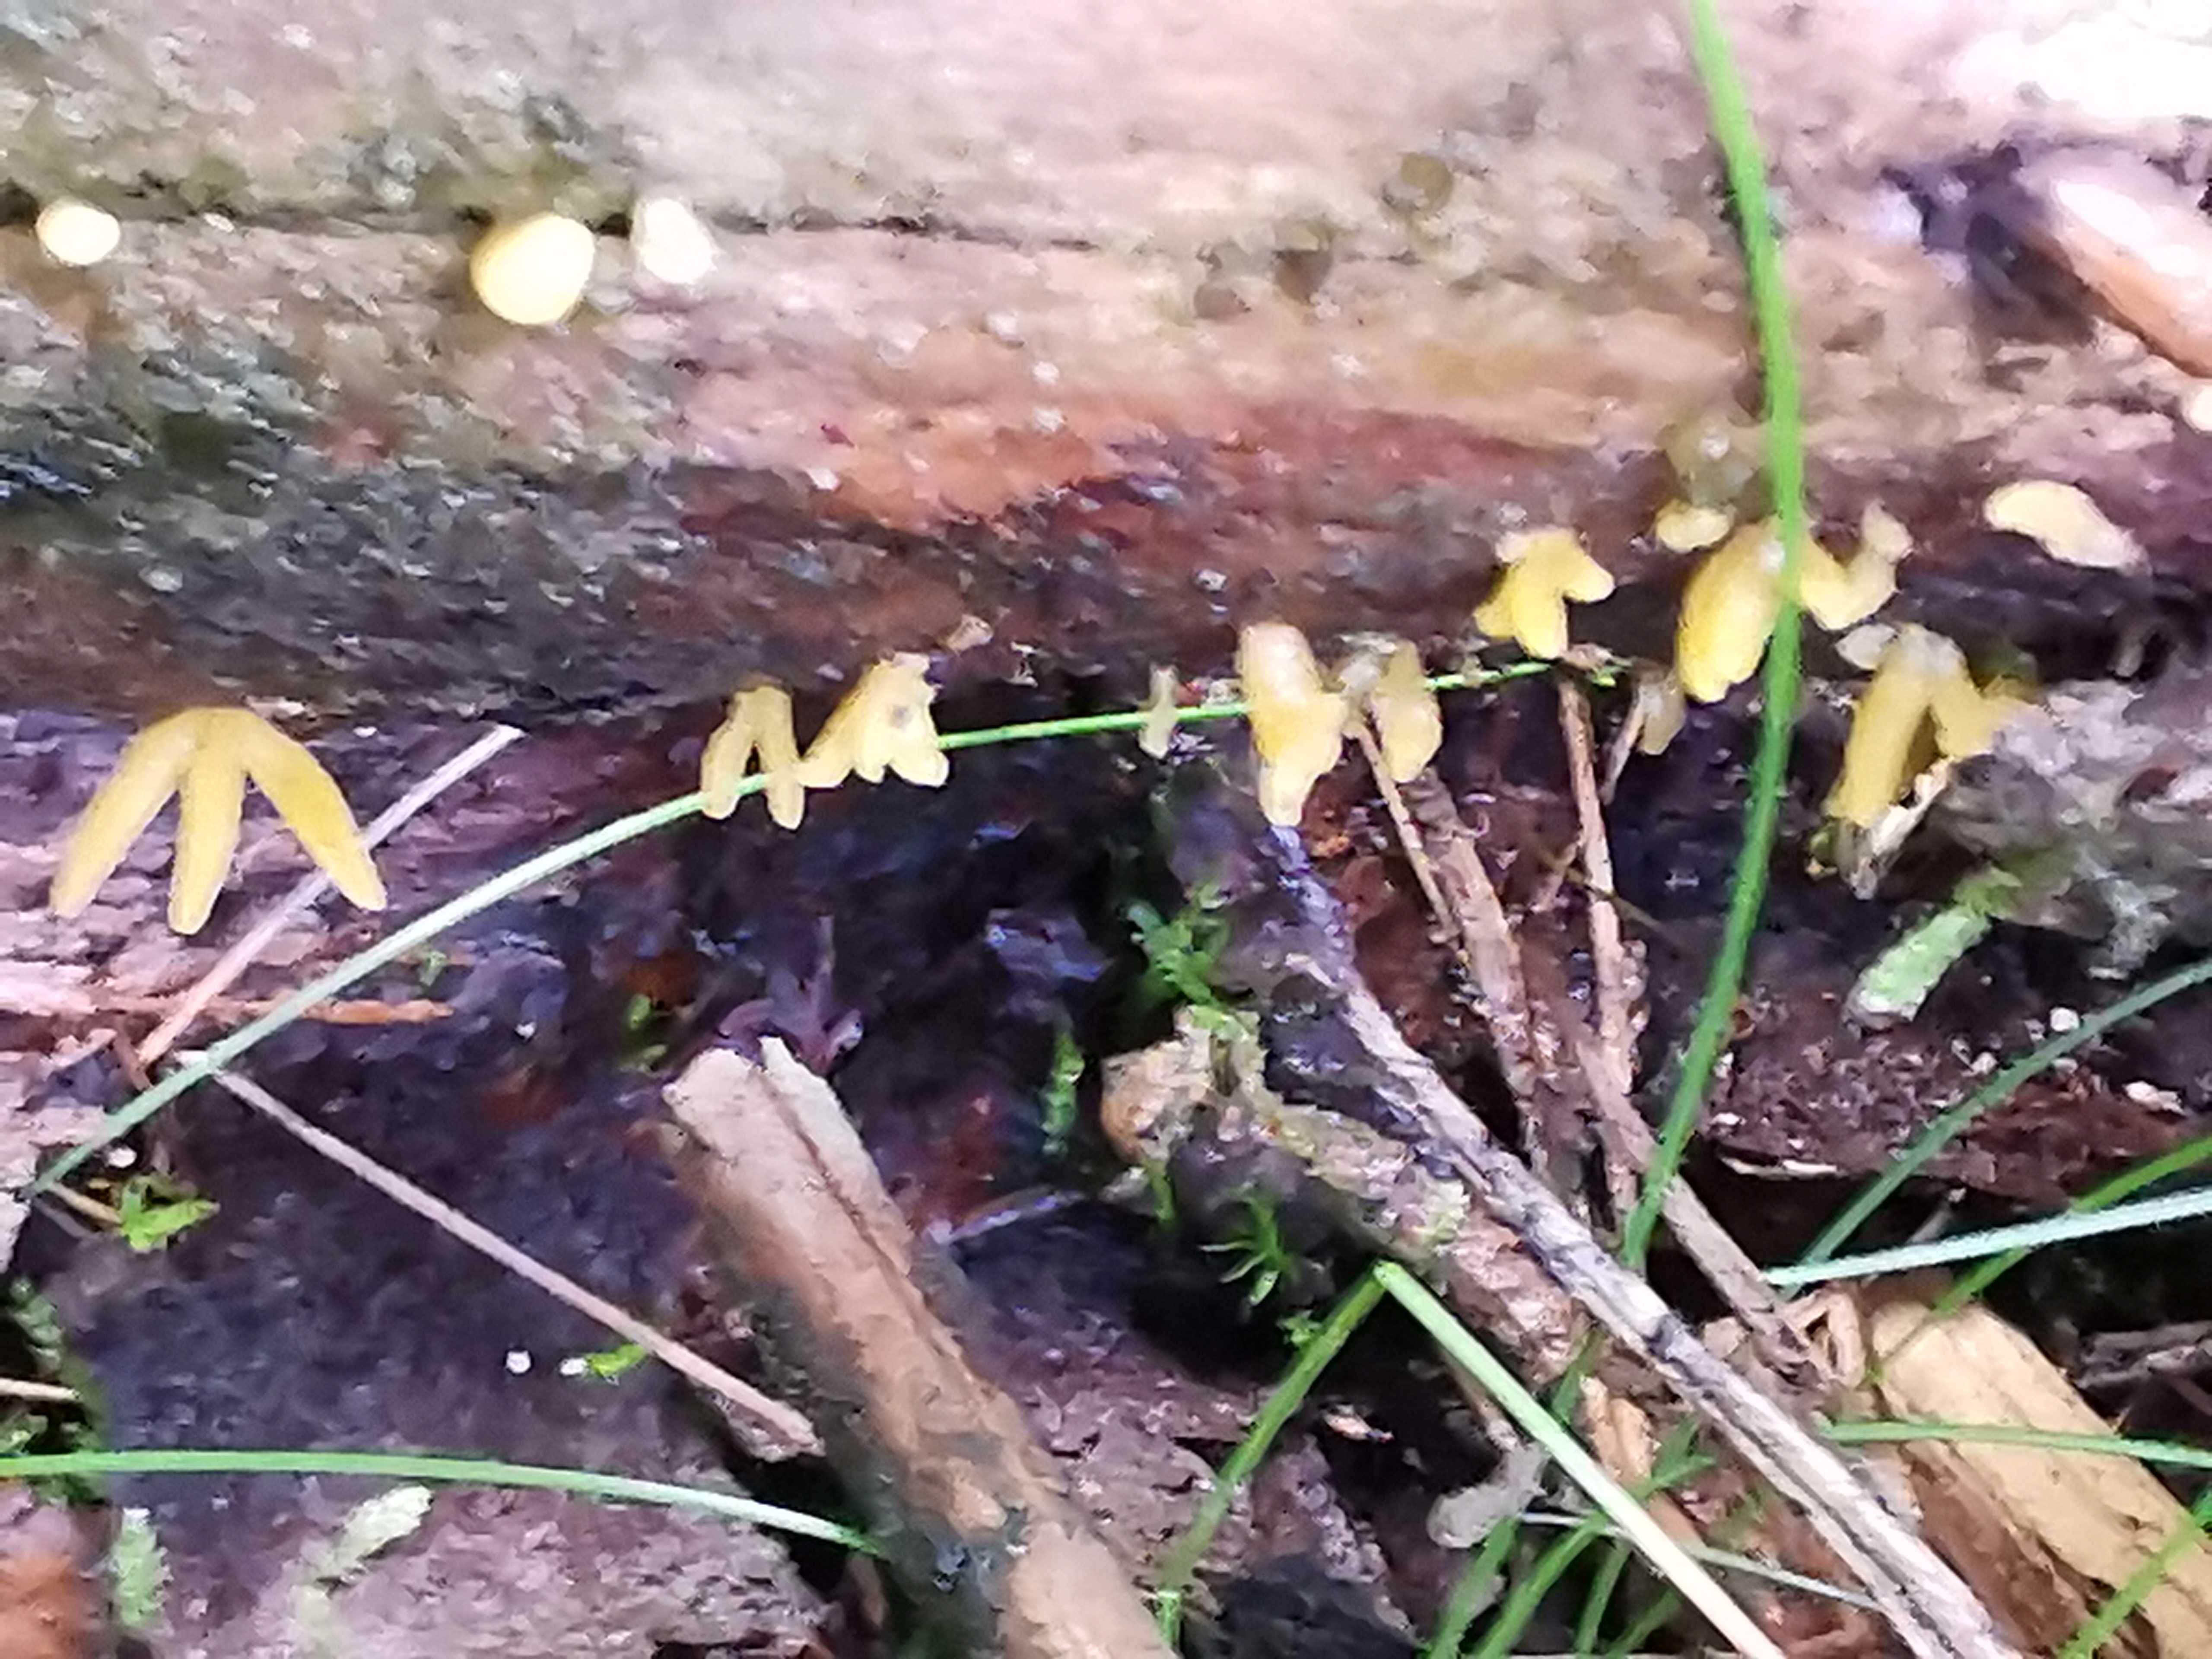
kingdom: Fungi
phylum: Basidiomycota
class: Dacrymycetes
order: Dacrymycetales
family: Dacrymycetaceae
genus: Calocera
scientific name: Calocera
